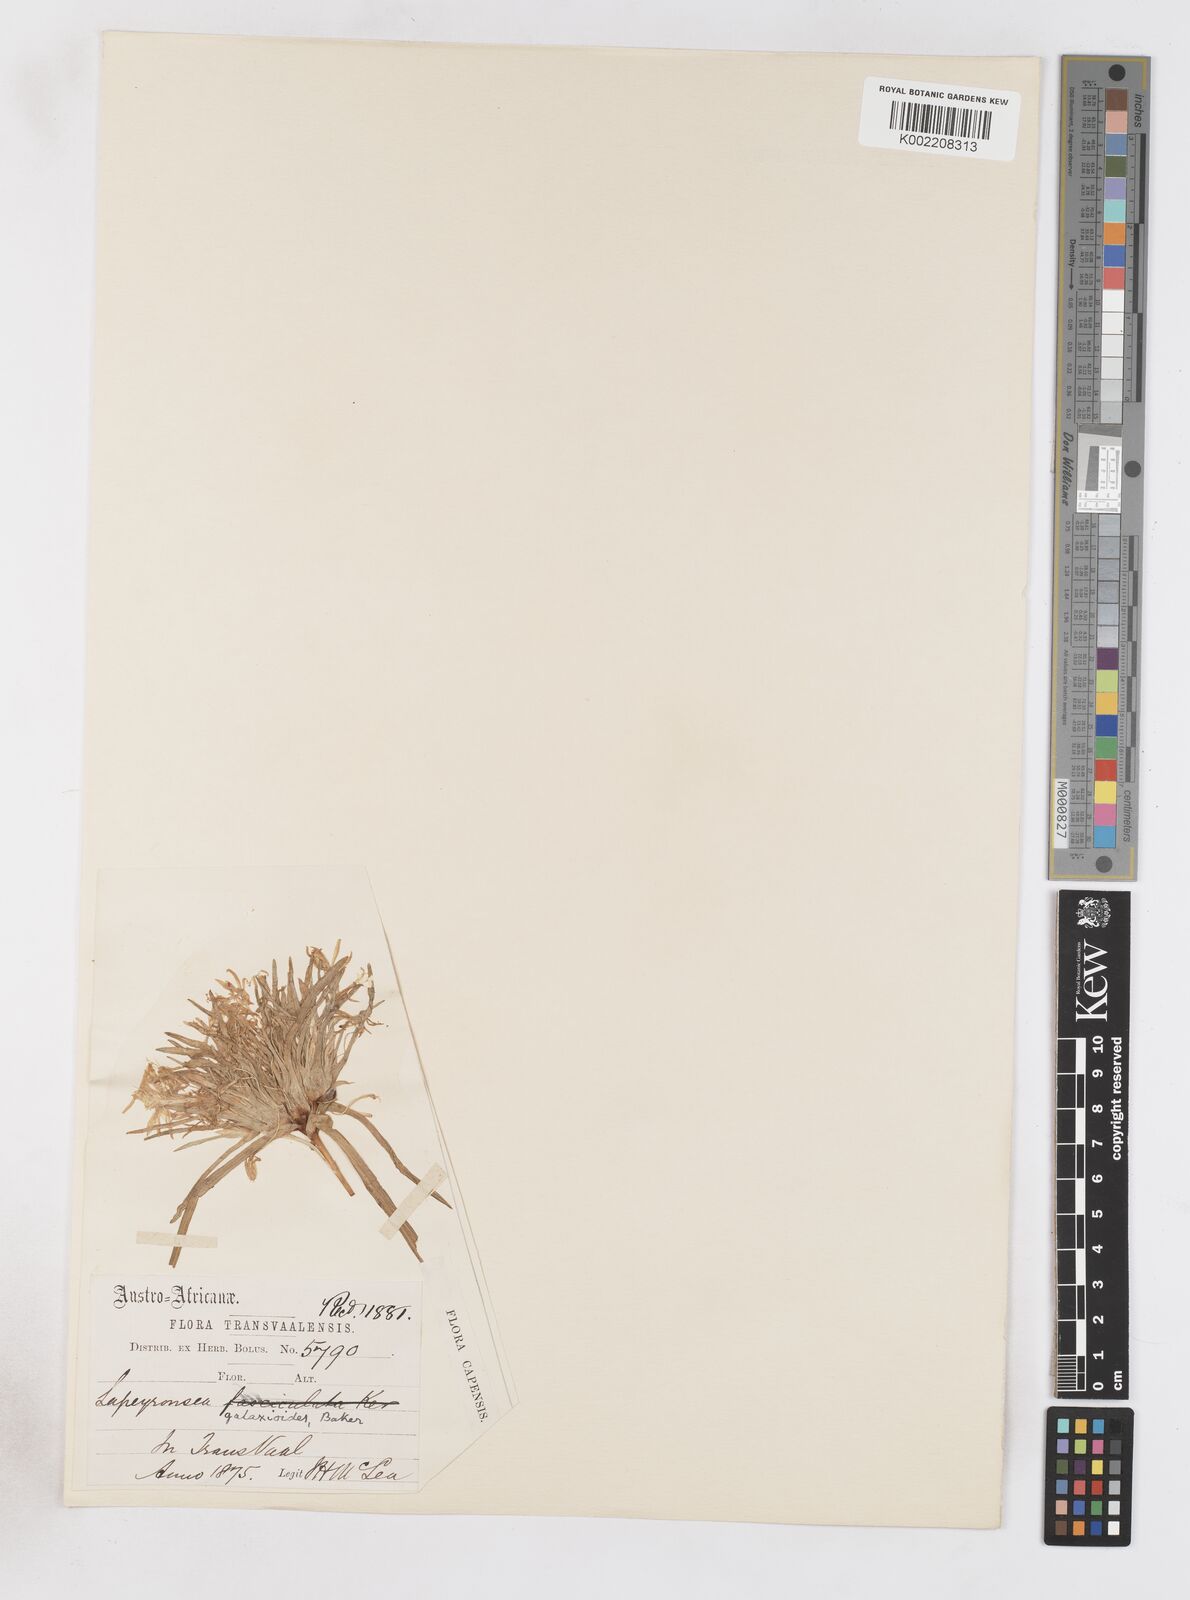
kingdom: Plantae
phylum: Tracheophyta
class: Liliopsida
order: Asparagales
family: Iridaceae
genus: Lapeirousia
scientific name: Lapeirousia kalahariensis
